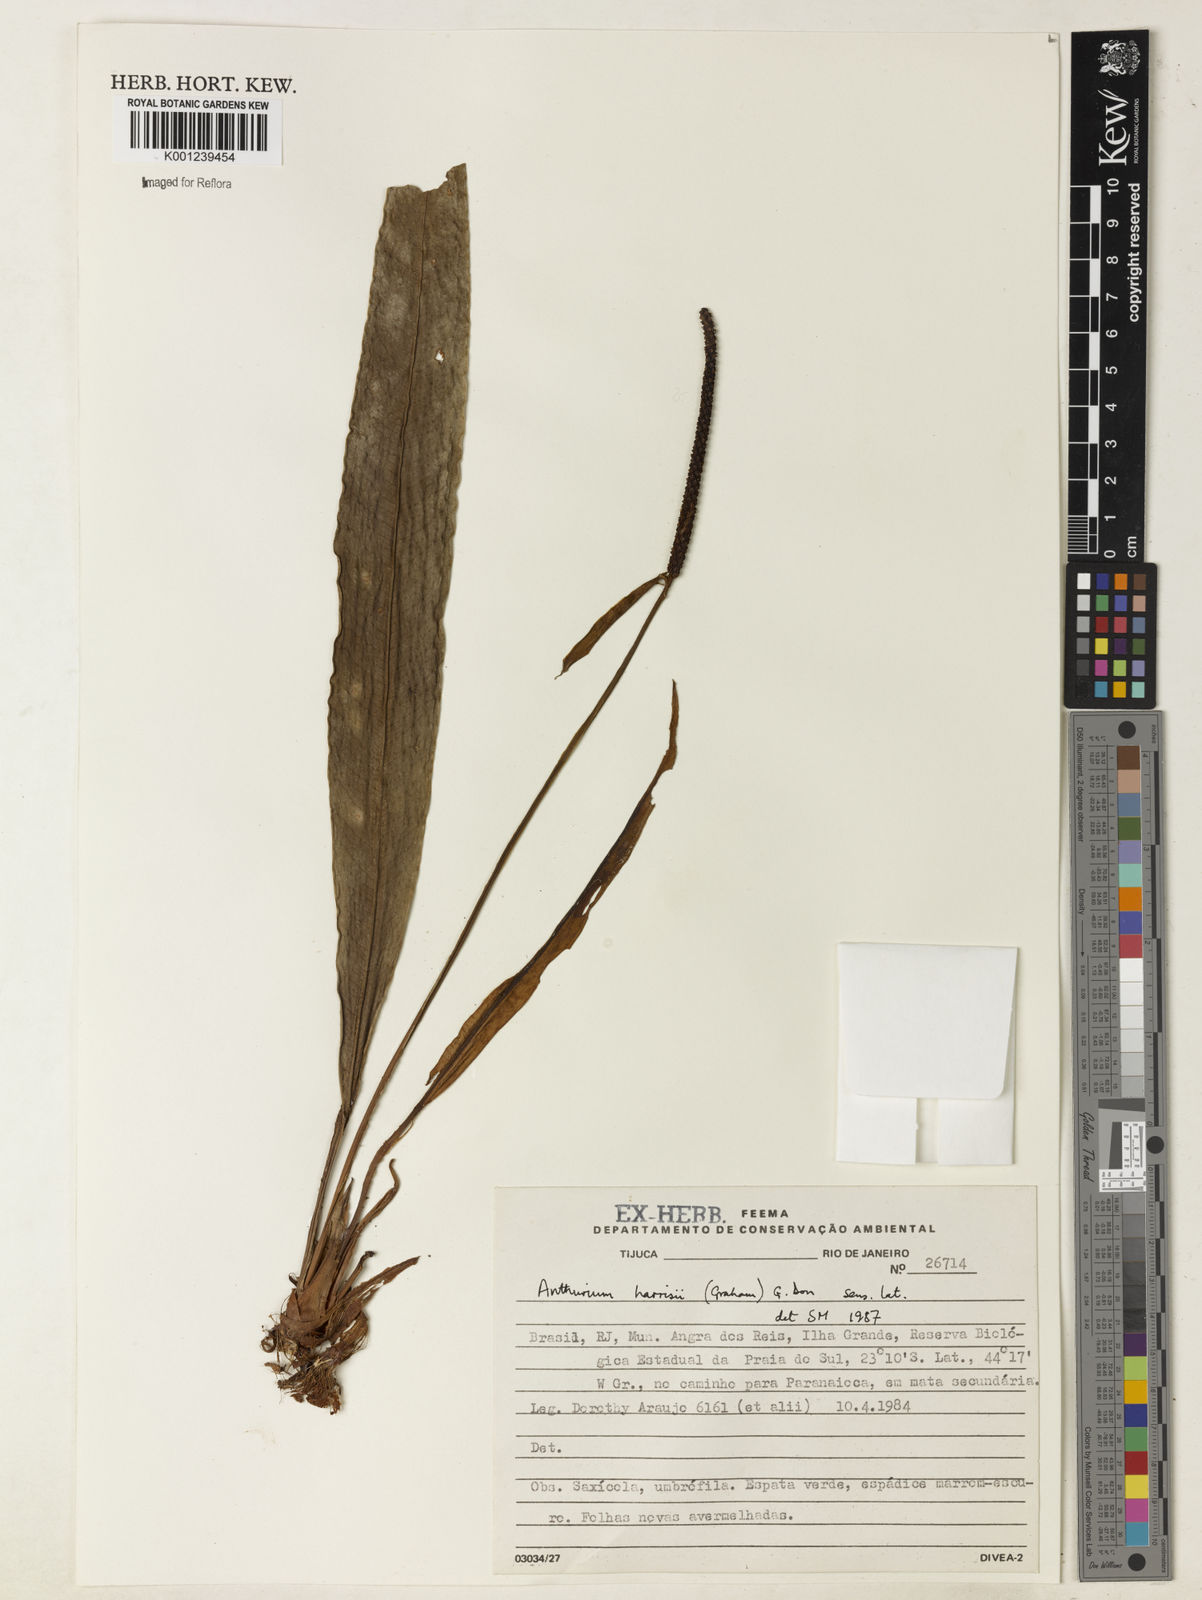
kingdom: Plantae
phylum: Tracheophyta
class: Liliopsida
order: Alismatales
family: Araceae
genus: Anthurium
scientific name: Anthurium harrisii
